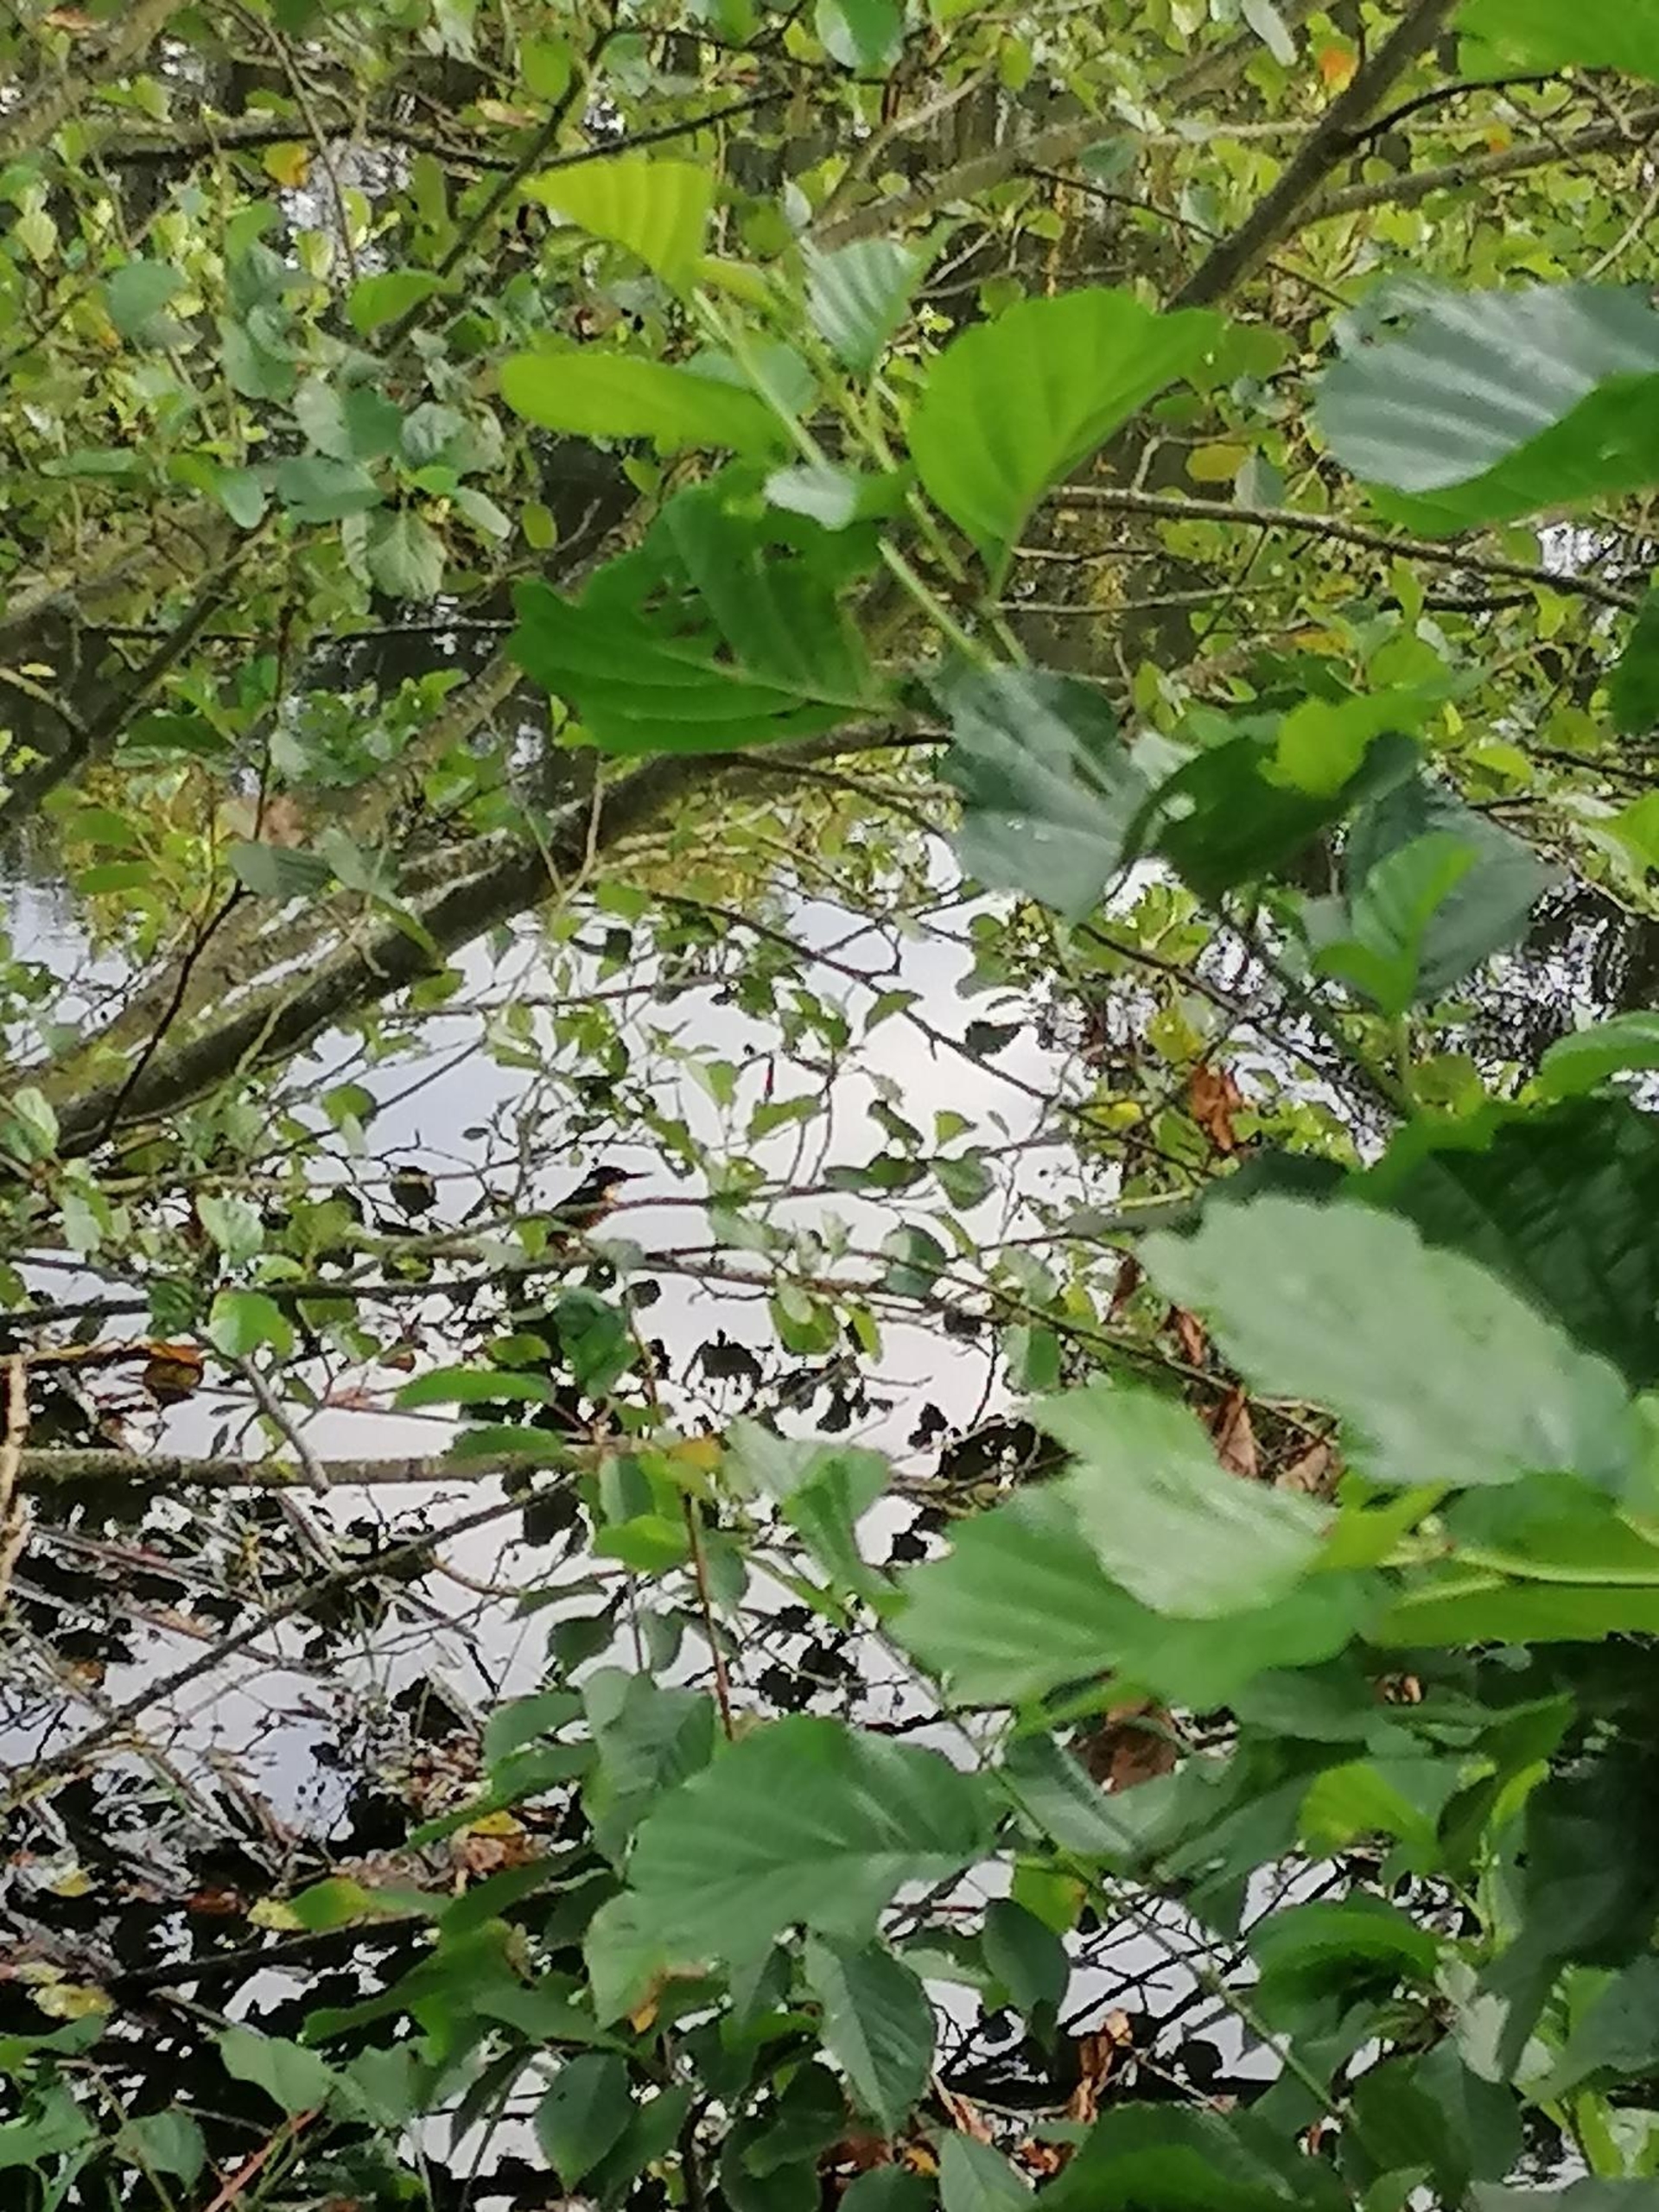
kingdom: Animalia
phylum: Chordata
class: Aves
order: Coraciiformes
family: Alcedinidae
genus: Alcedo
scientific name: Alcedo atthis
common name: Isfugl
